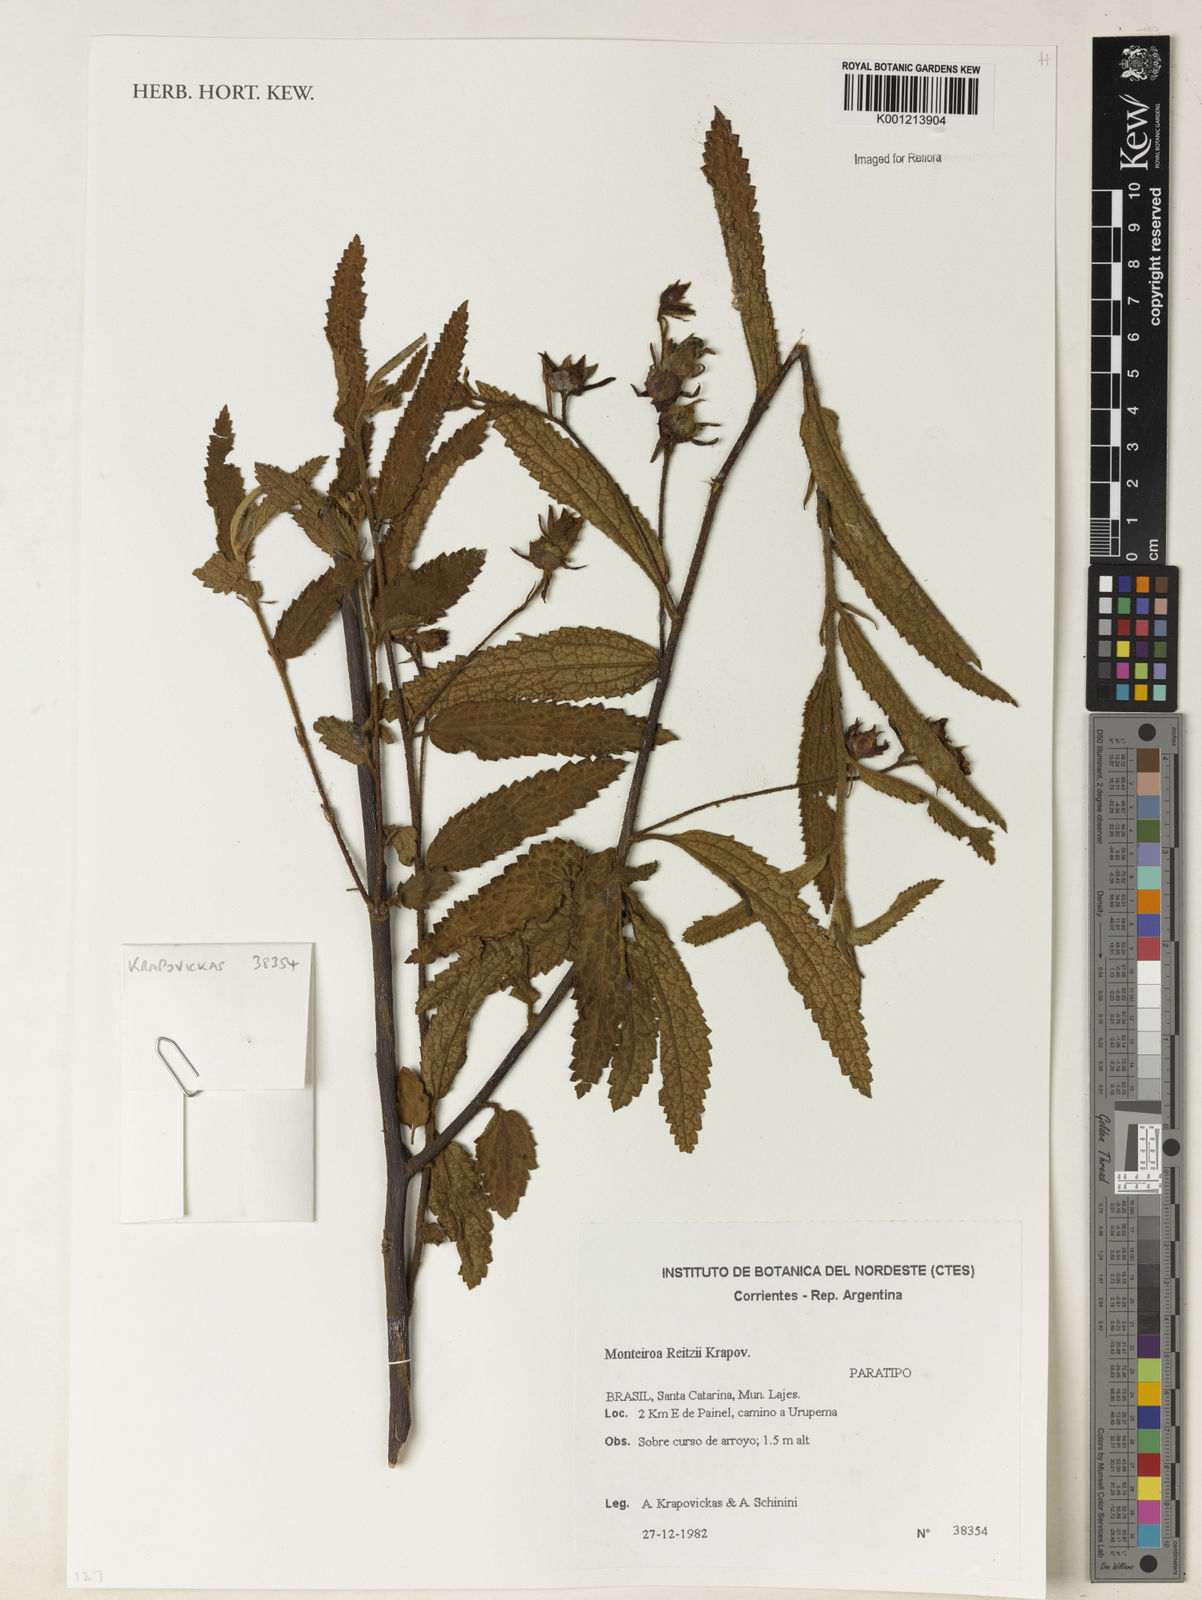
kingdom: Plantae
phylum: Tracheophyta
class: Magnoliopsida
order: Malvales
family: Malvaceae
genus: Monteiroa
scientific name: Monteiroa reitzii
